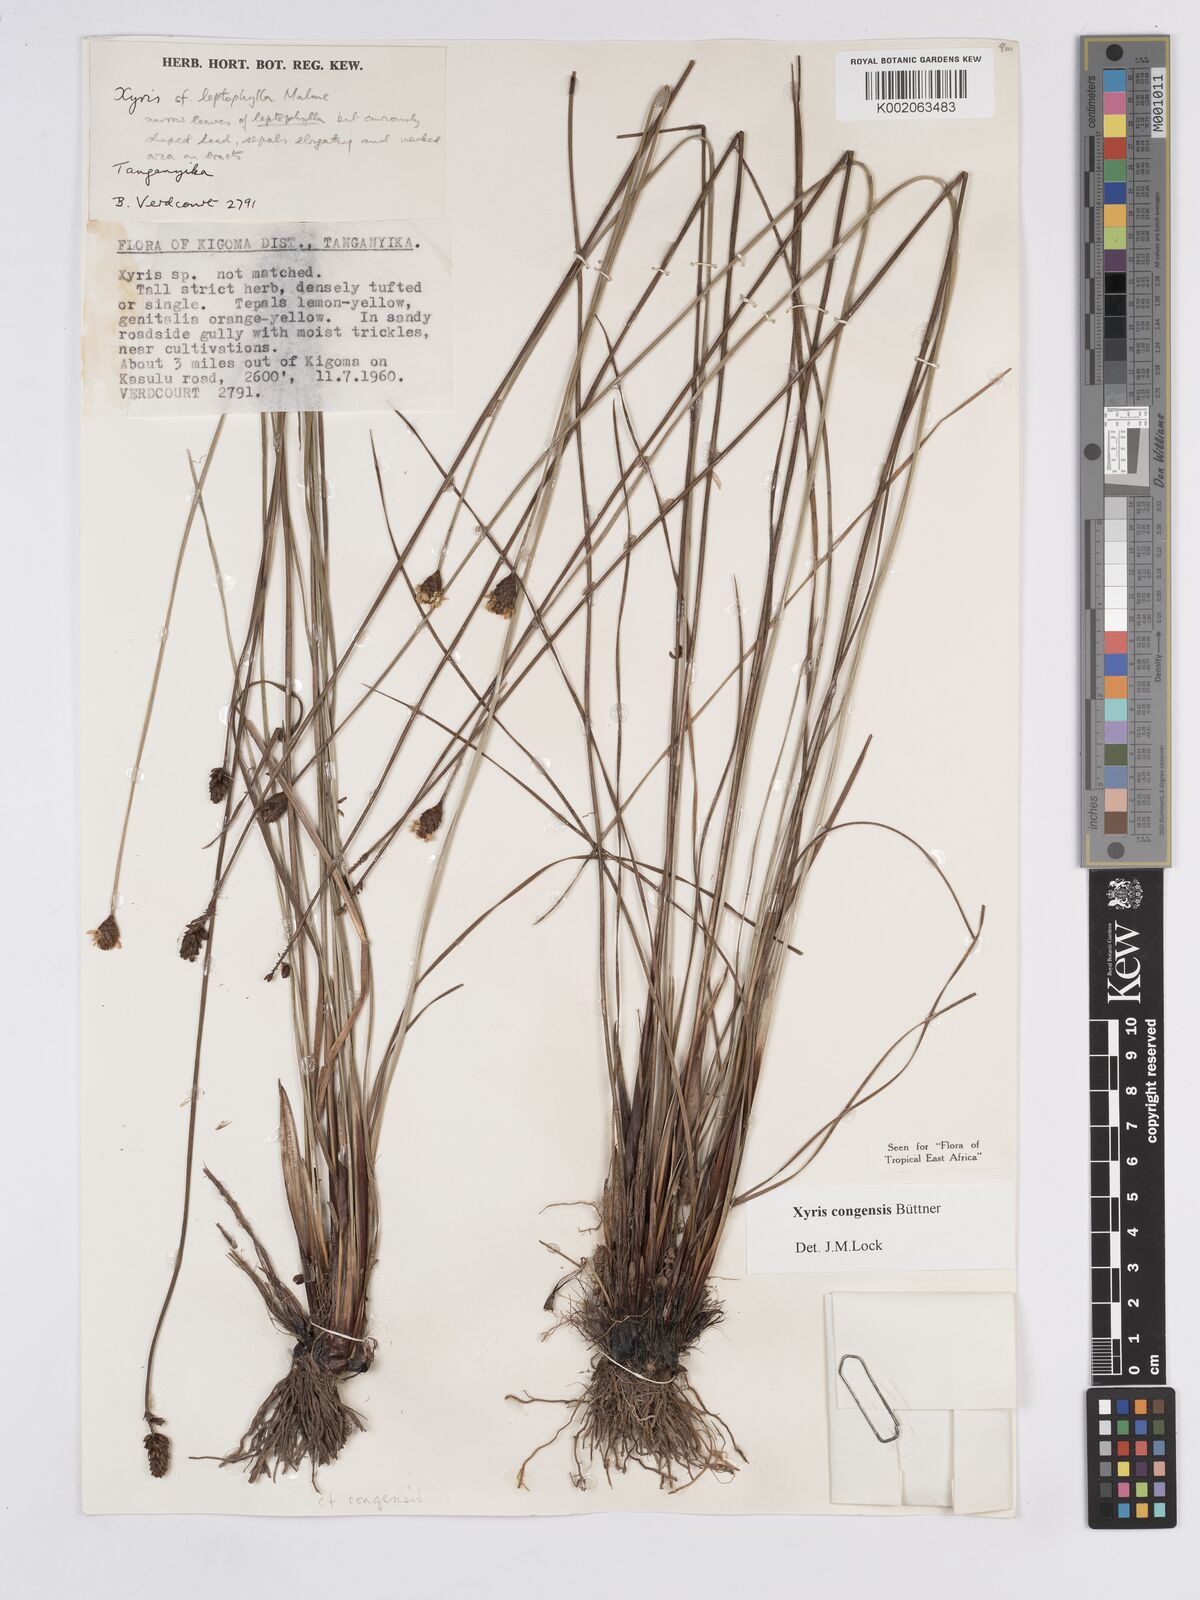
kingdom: Plantae
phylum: Tracheophyta
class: Liliopsida
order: Poales
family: Xyridaceae
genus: Xyris
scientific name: Xyris congensis
